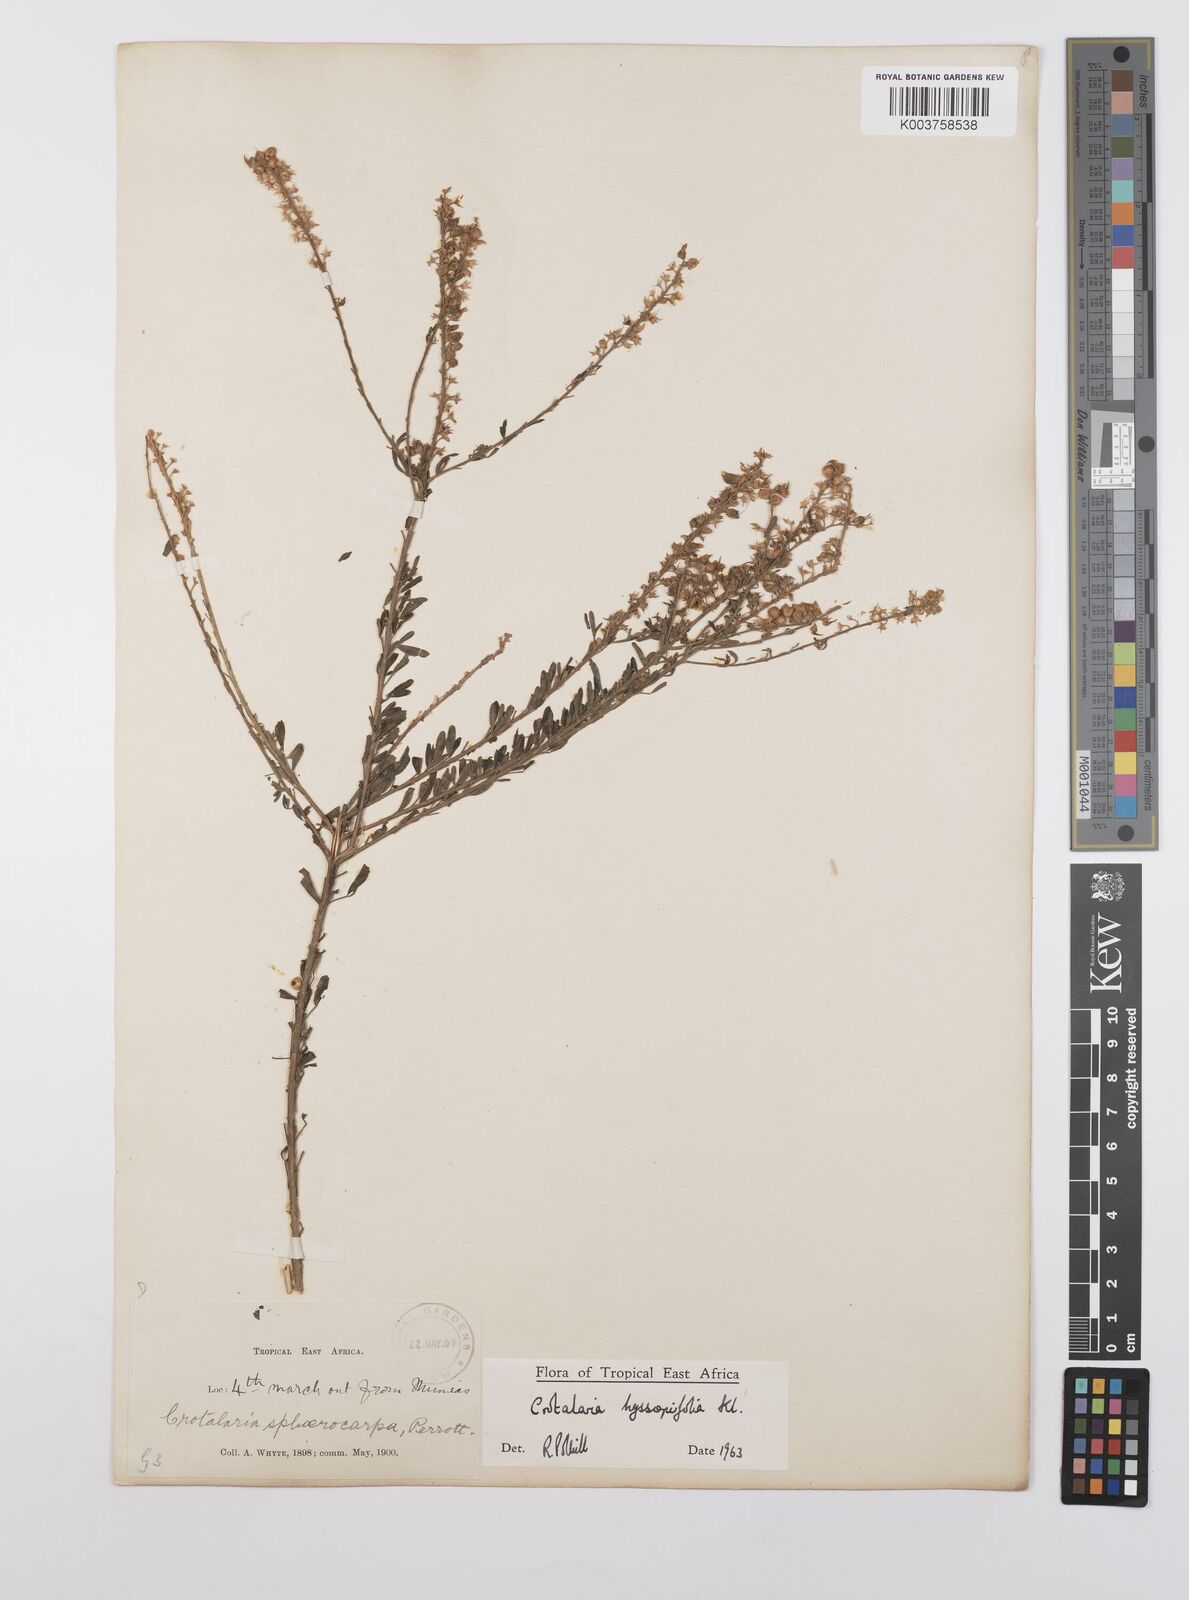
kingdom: Plantae
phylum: Tracheophyta
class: Magnoliopsida
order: Fabales
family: Fabaceae
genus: Crotalaria
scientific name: Crotalaria hyssopifolia
